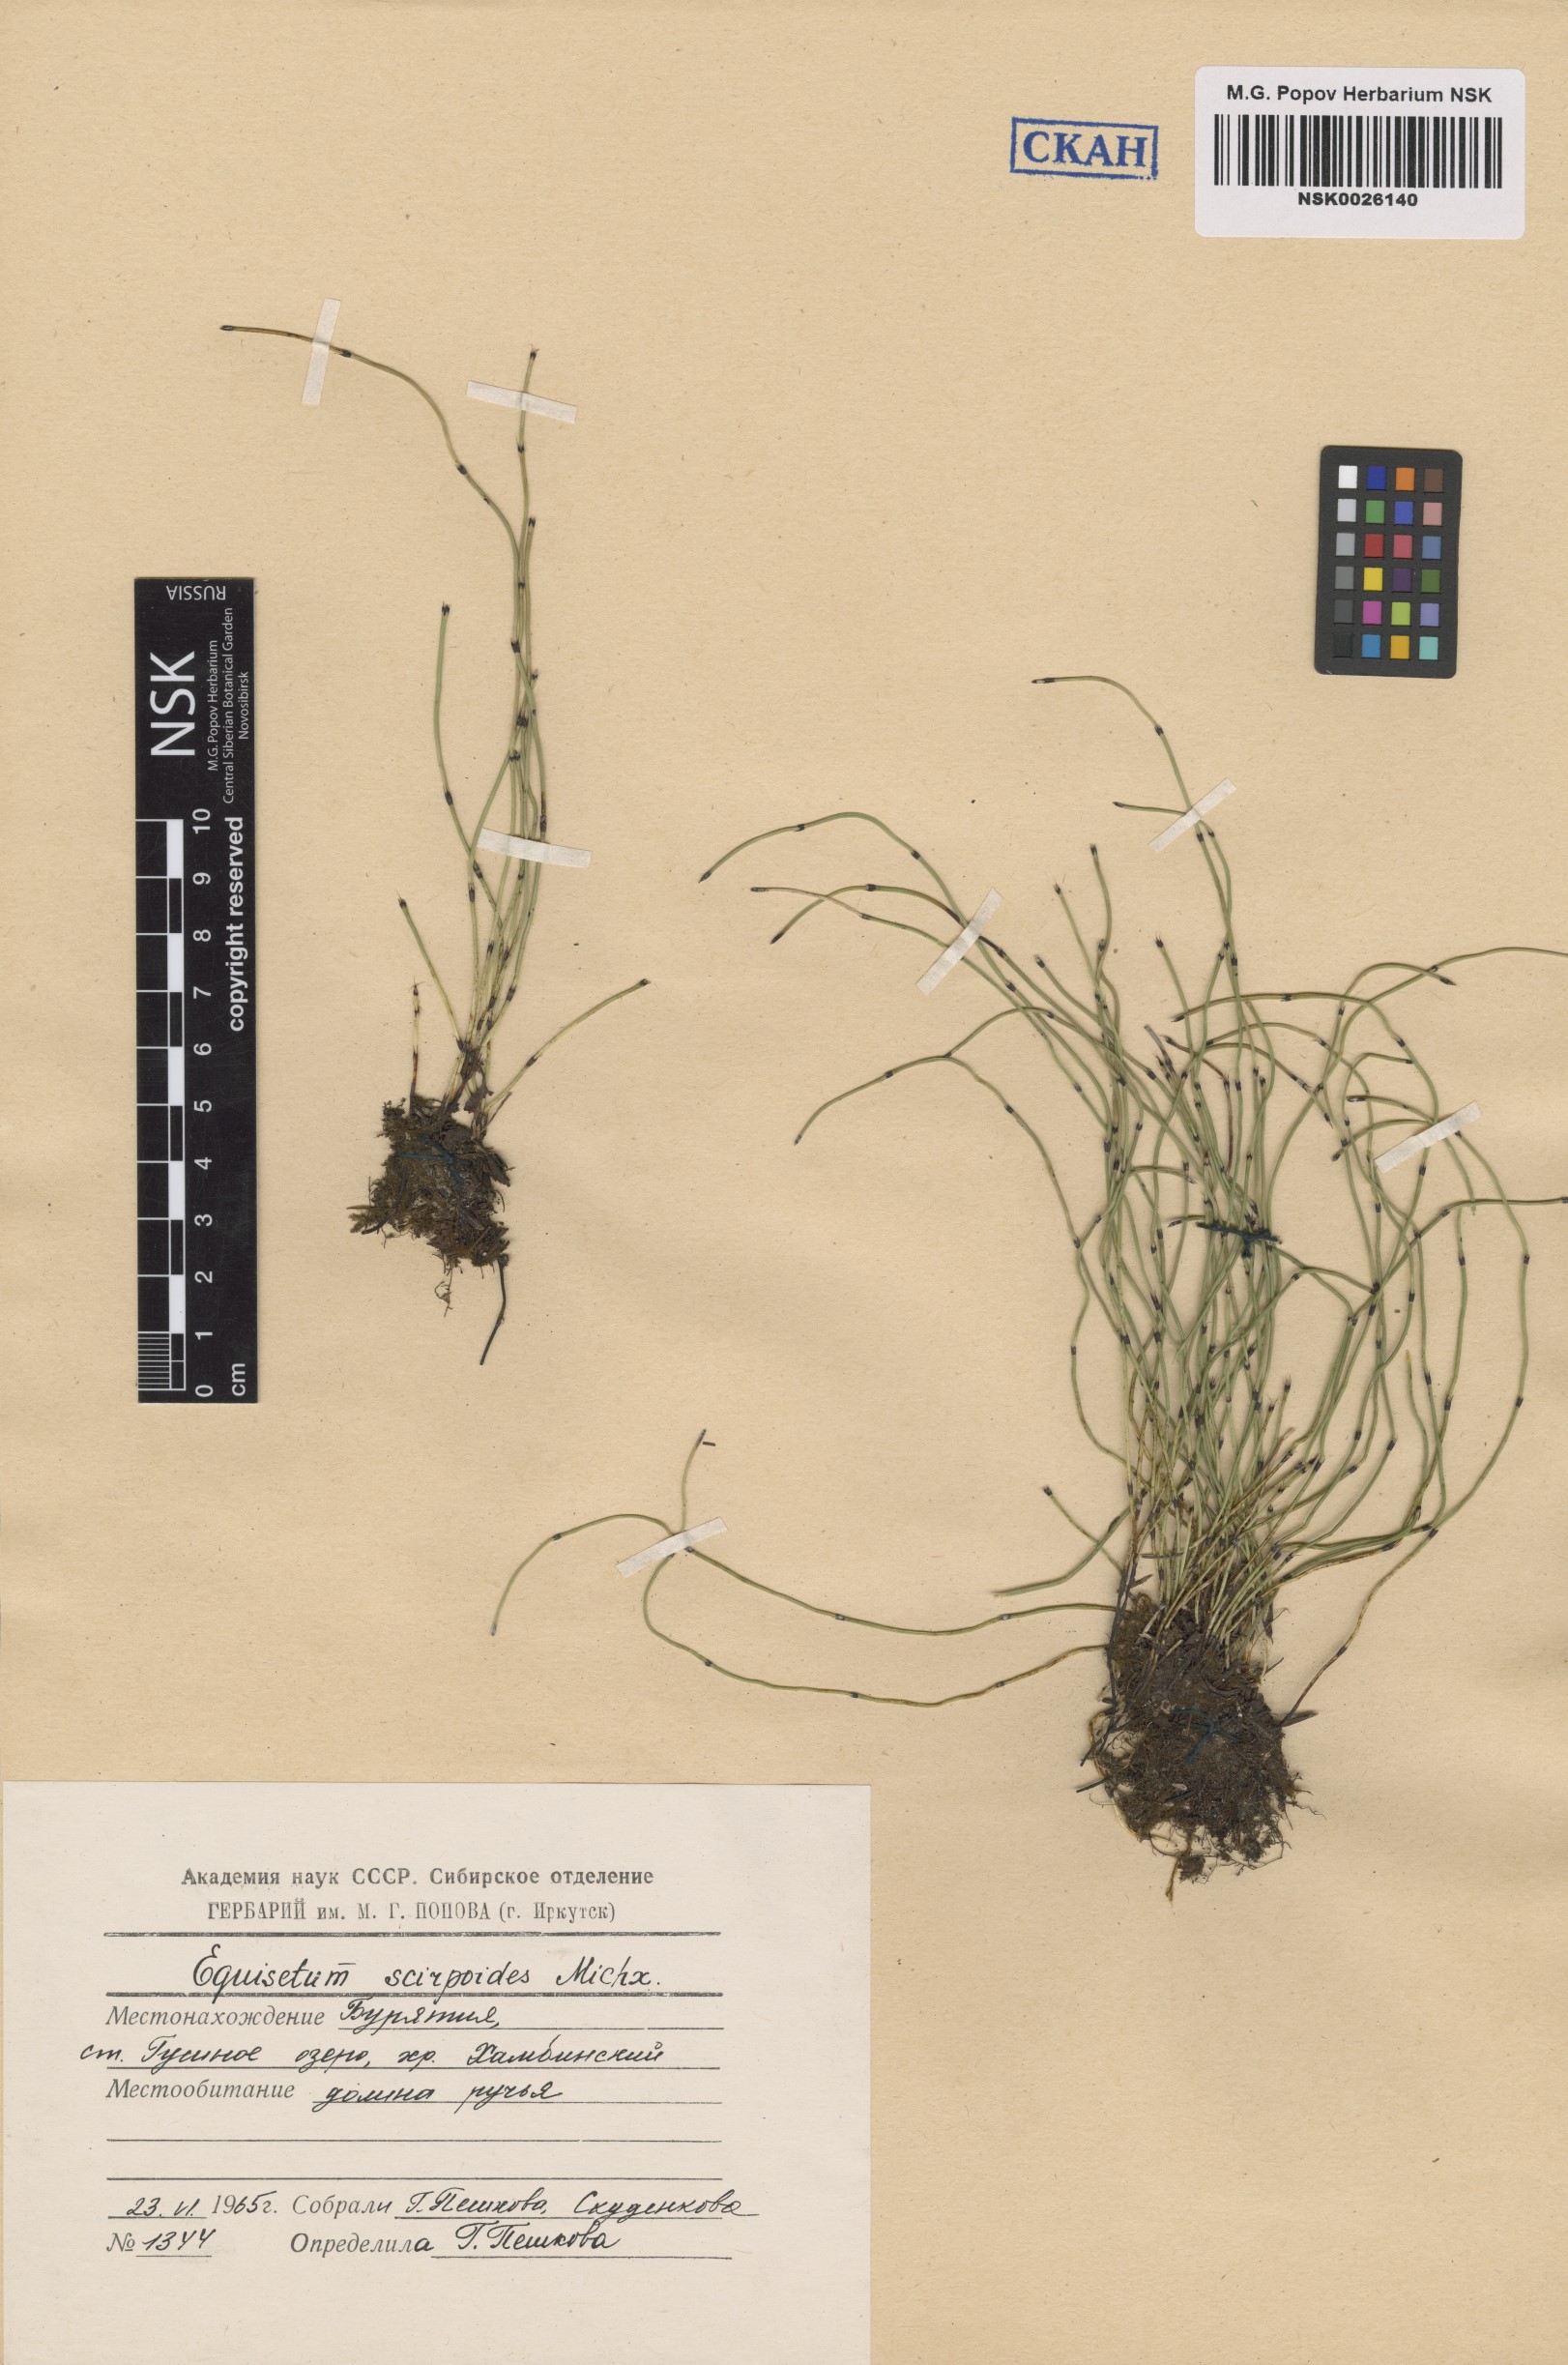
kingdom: Plantae
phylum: Tracheophyta
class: Polypodiopsida
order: Equisetales
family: Equisetaceae
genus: Equisetum
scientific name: Equisetum scirpoides
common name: Delicate horsetail
